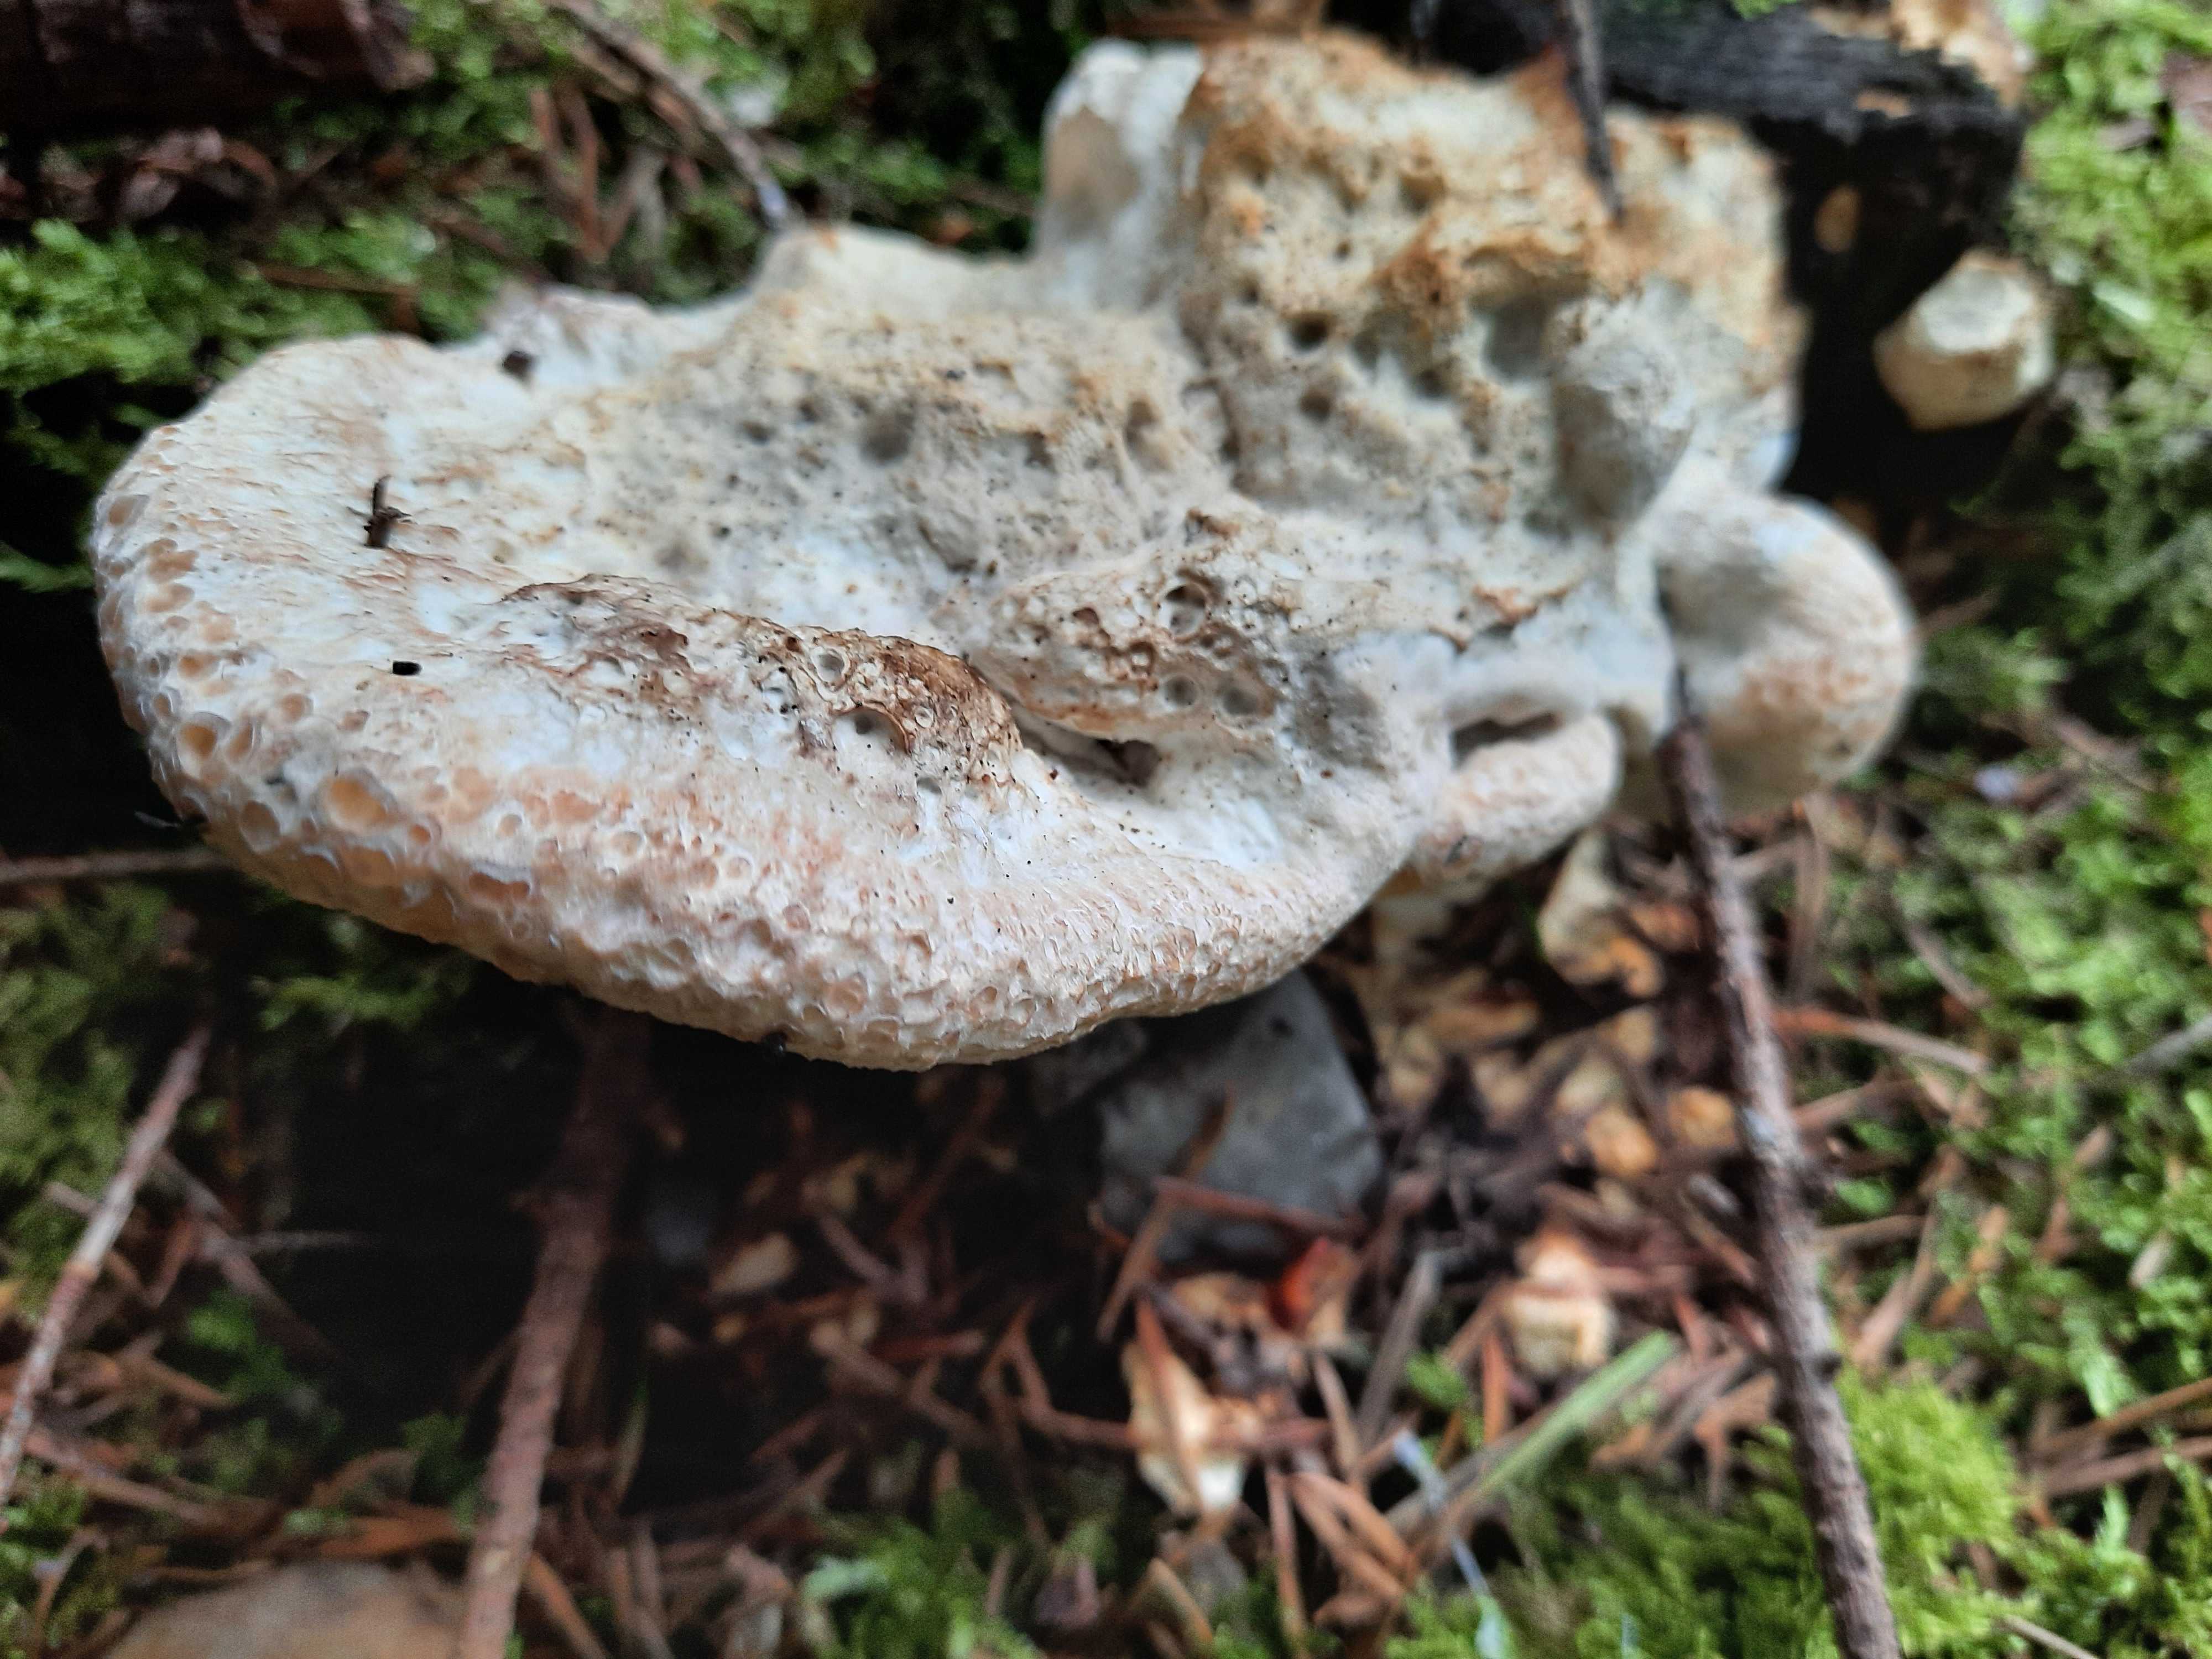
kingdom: Fungi
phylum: Basidiomycota
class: Agaricomycetes
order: Polyporales
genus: Calcipostia
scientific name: Calcipostia guttulata
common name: dråbe-kødporesvamp
